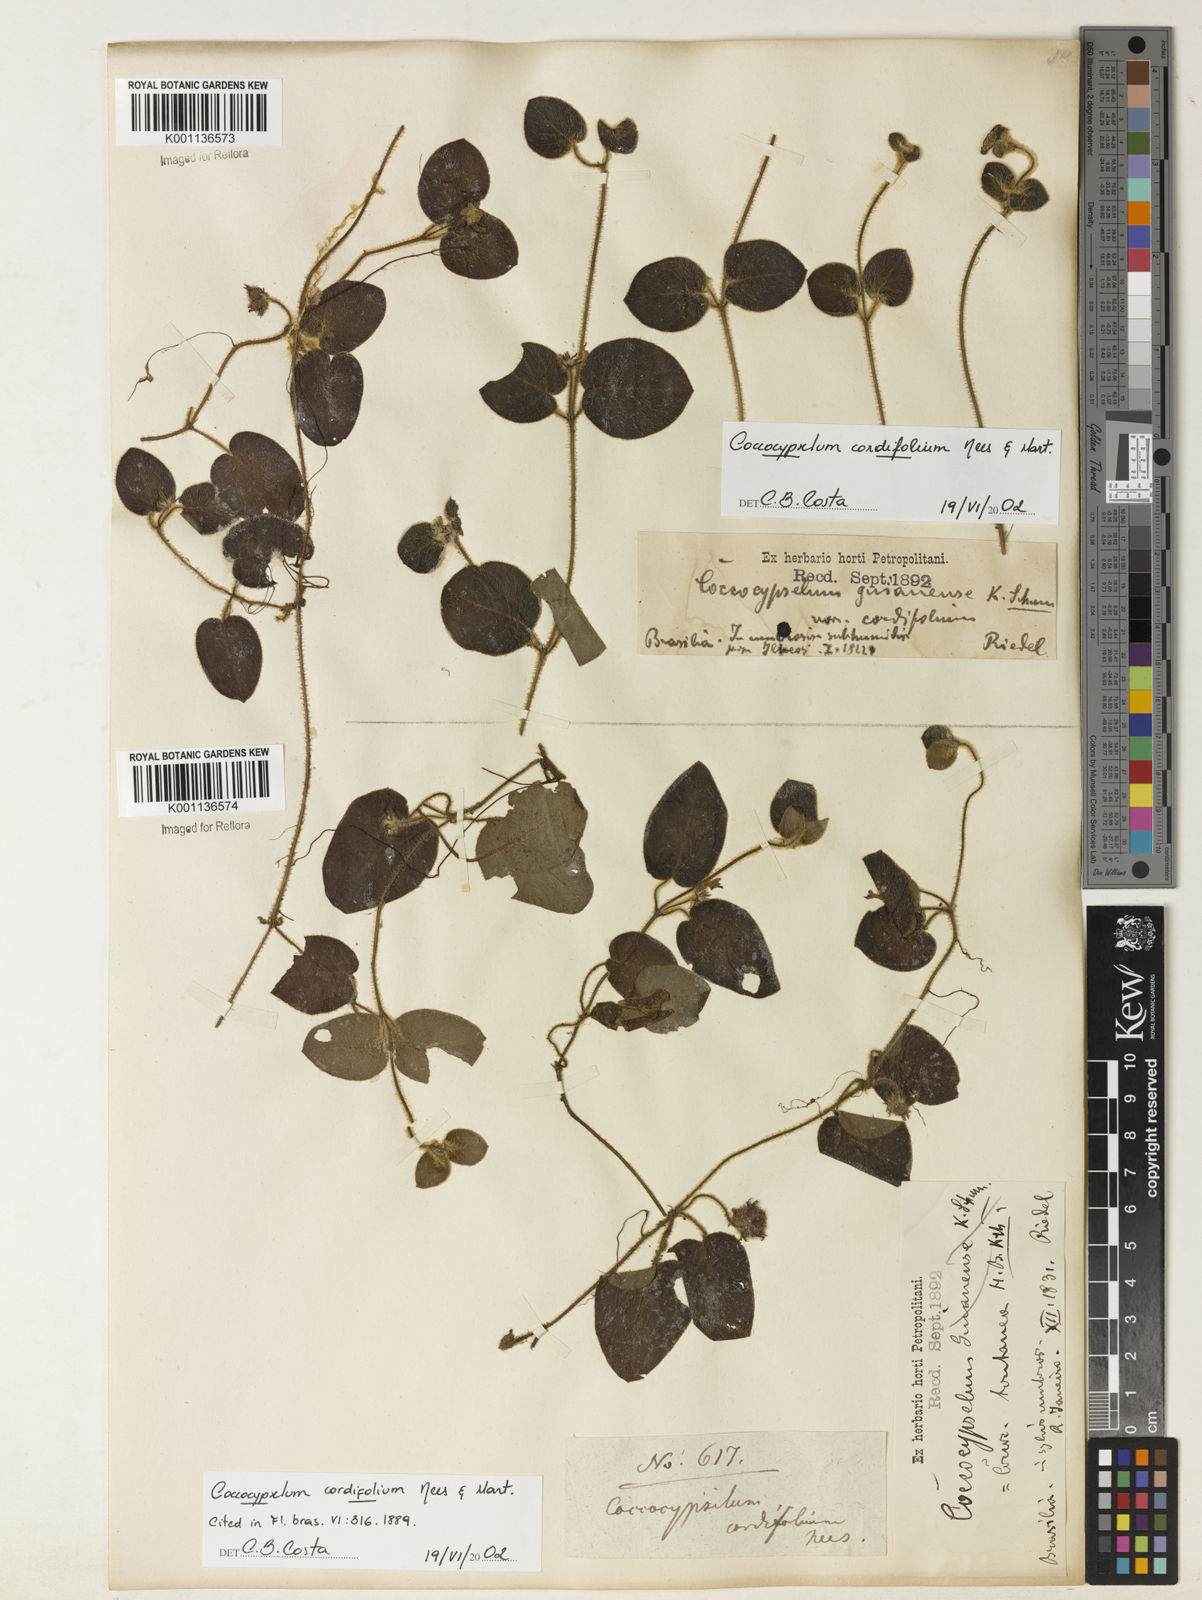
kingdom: Plantae
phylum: Tracheophyta
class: Magnoliopsida
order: Gentianales
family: Rubiaceae
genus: Coccocypselum
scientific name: Coccocypselum cordifolium
